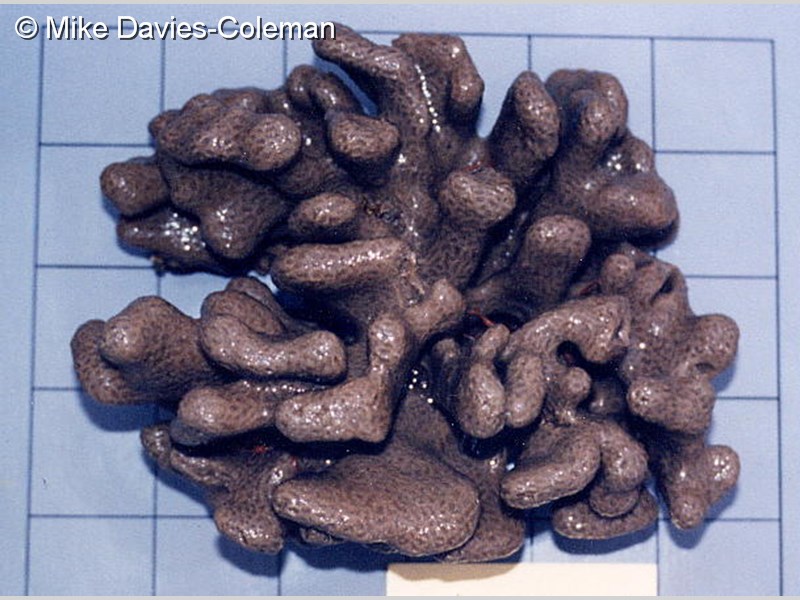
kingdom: Animalia
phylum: Chordata
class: Ascidiacea
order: Aplousobranchia
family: Polyclinidae
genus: Aplidium
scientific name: Aplidium pantherinum
